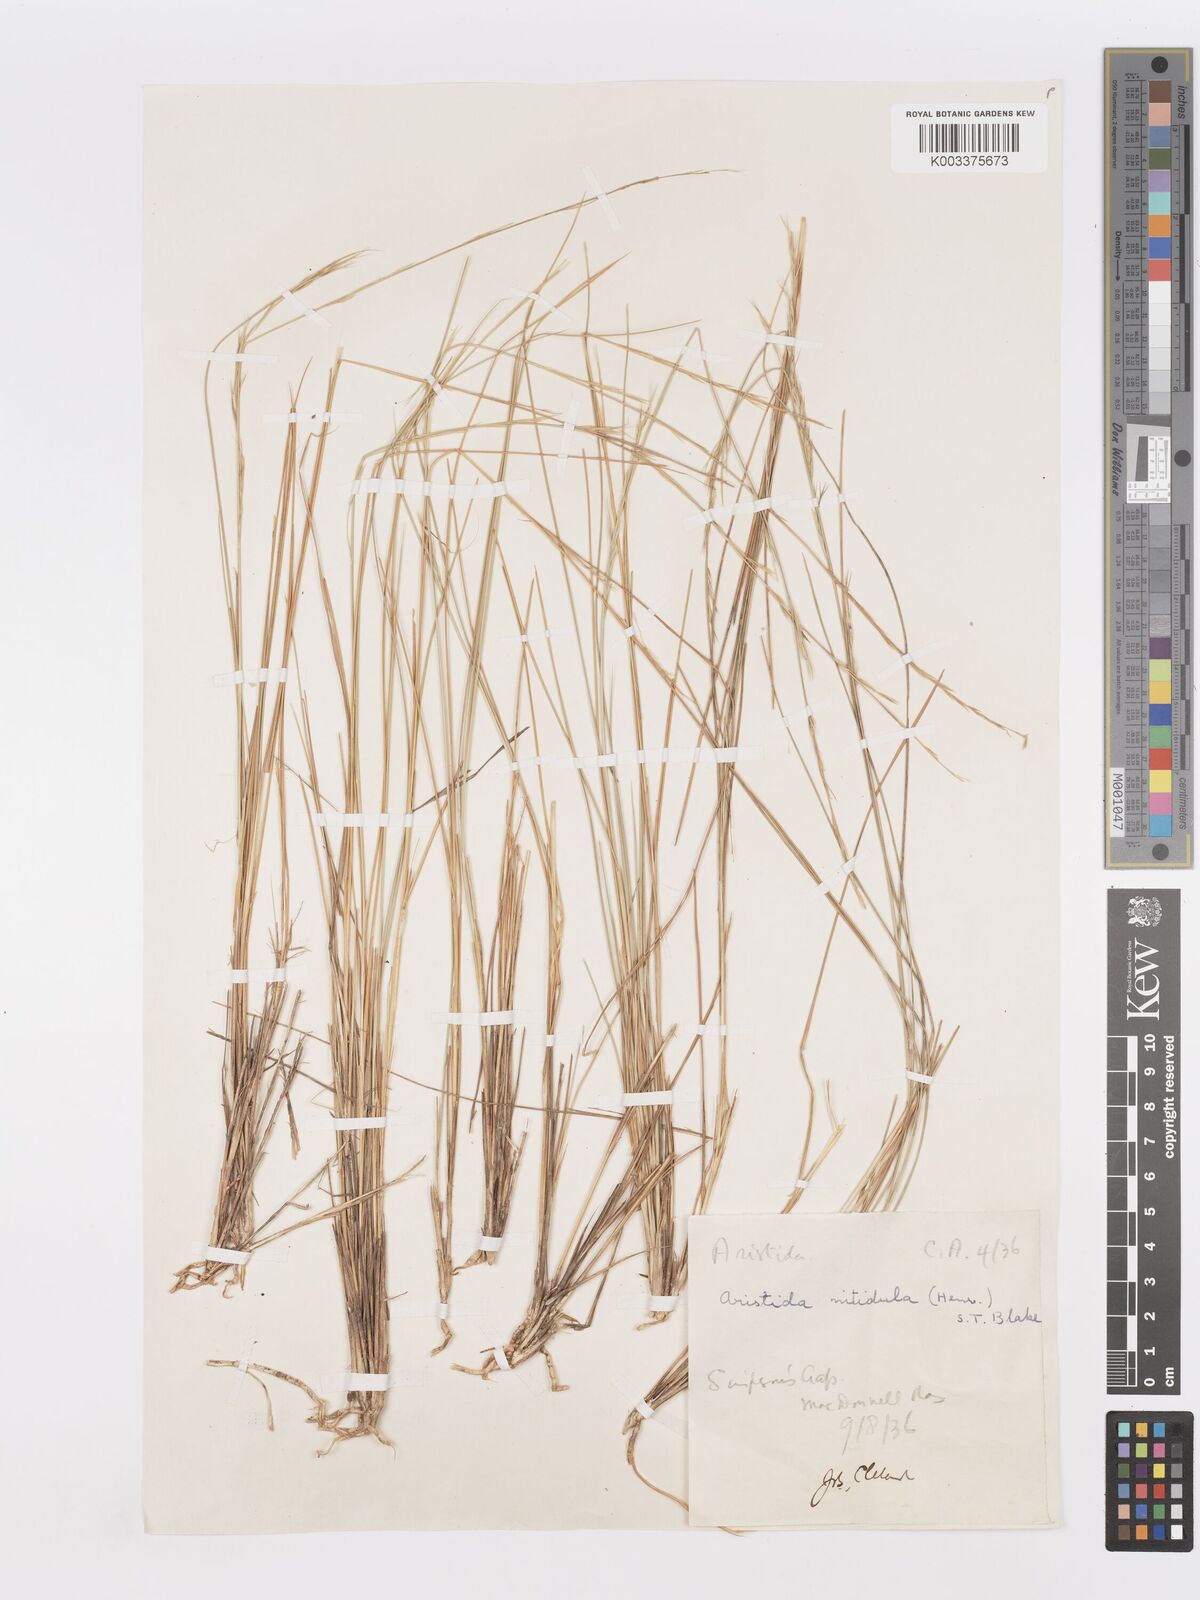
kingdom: Plantae
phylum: Tracheophyta
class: Liliopsida
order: Poales
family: Poaceae
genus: Aristida
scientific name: Aristida nitidula
